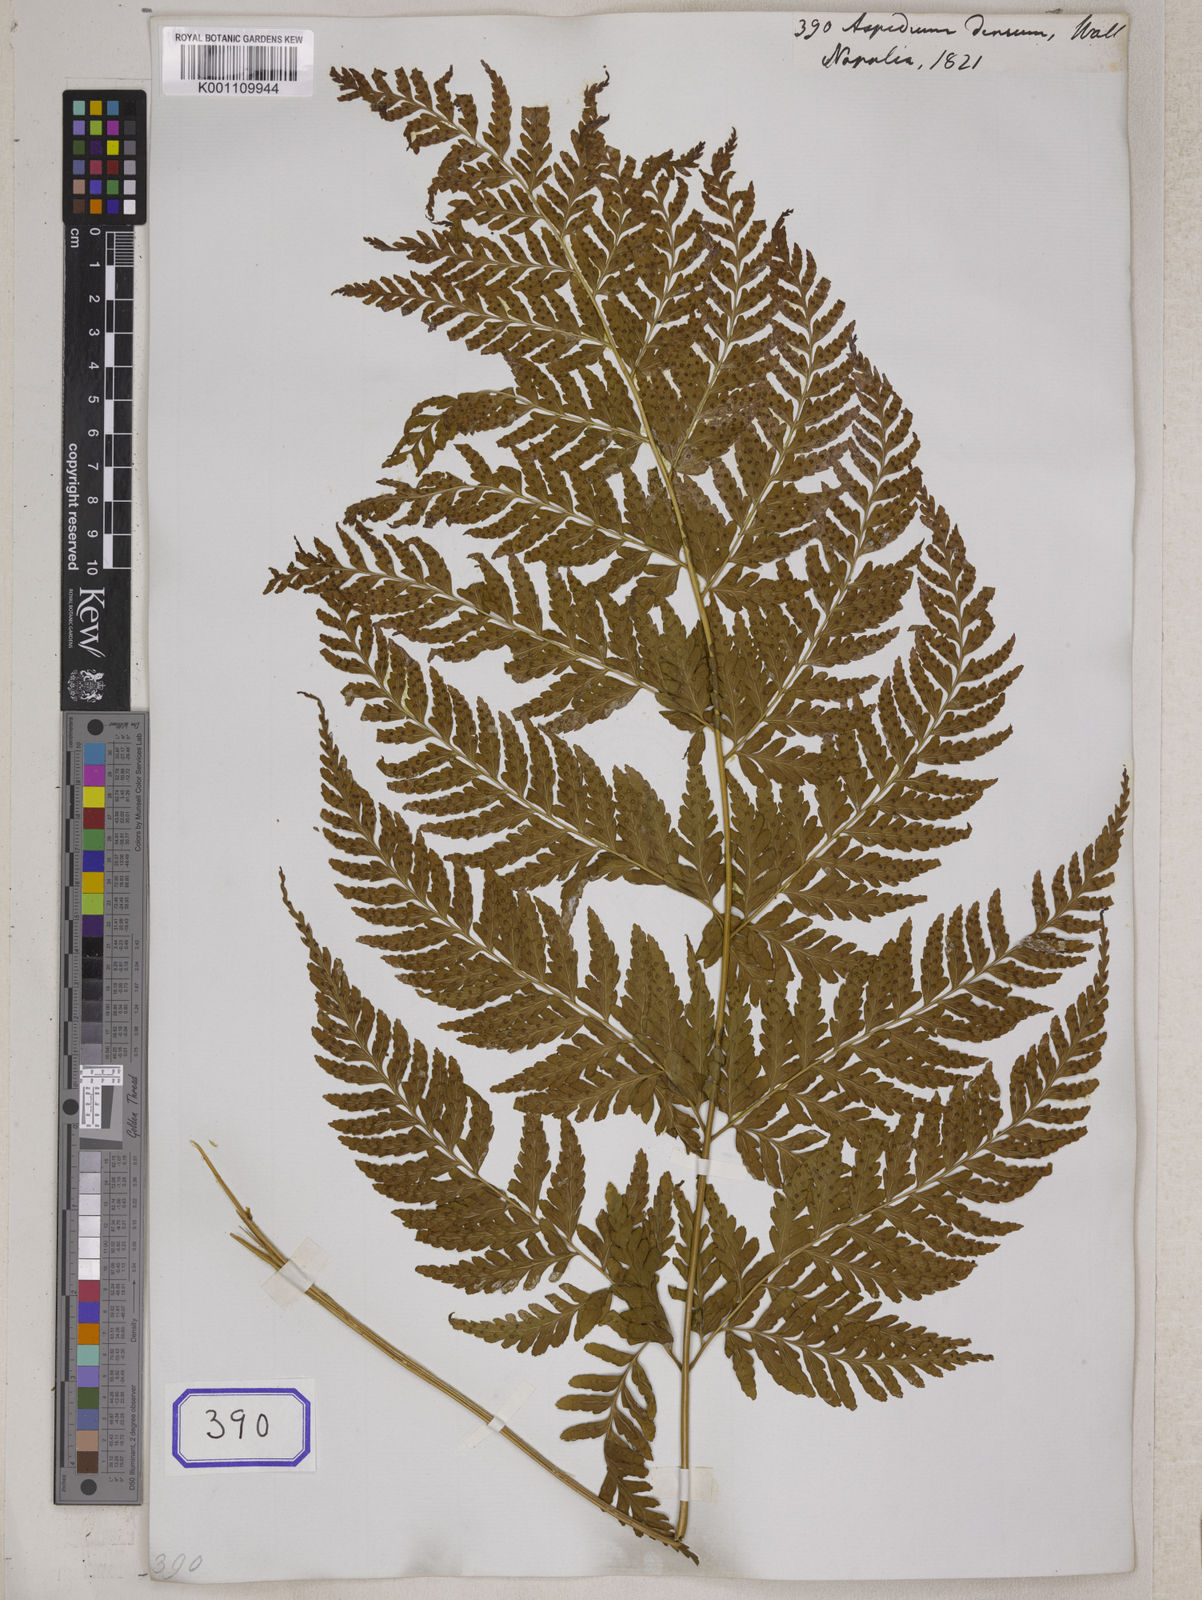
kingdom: Plantae
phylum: Tracheophyta
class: Polypodiopsida
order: Polypodiales
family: Dryopteridaceae
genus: Dryopteris
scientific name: Dryopteris sparsa
